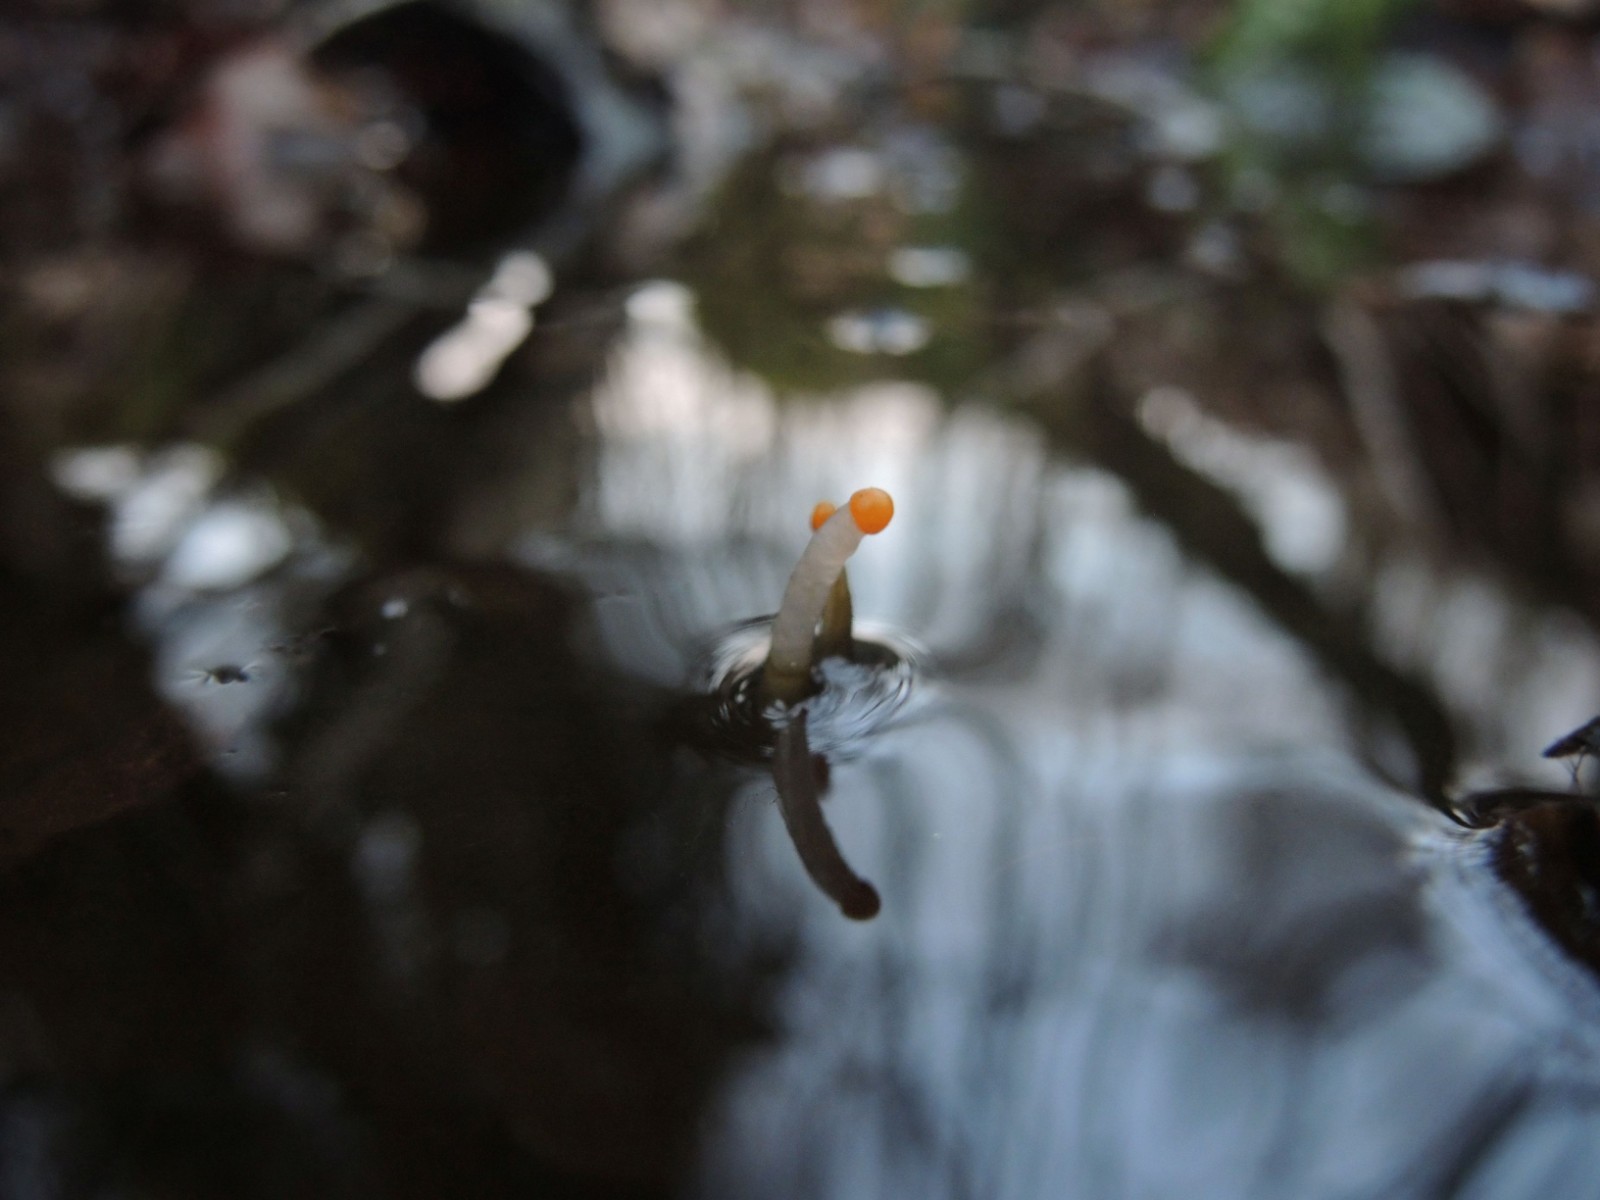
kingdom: Fungi
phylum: Ascomycota
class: Leotiomycetes
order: Helotiales
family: Cenangiaceae
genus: Mitrula
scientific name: Mitrula paludosa
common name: gul nøkketunge
